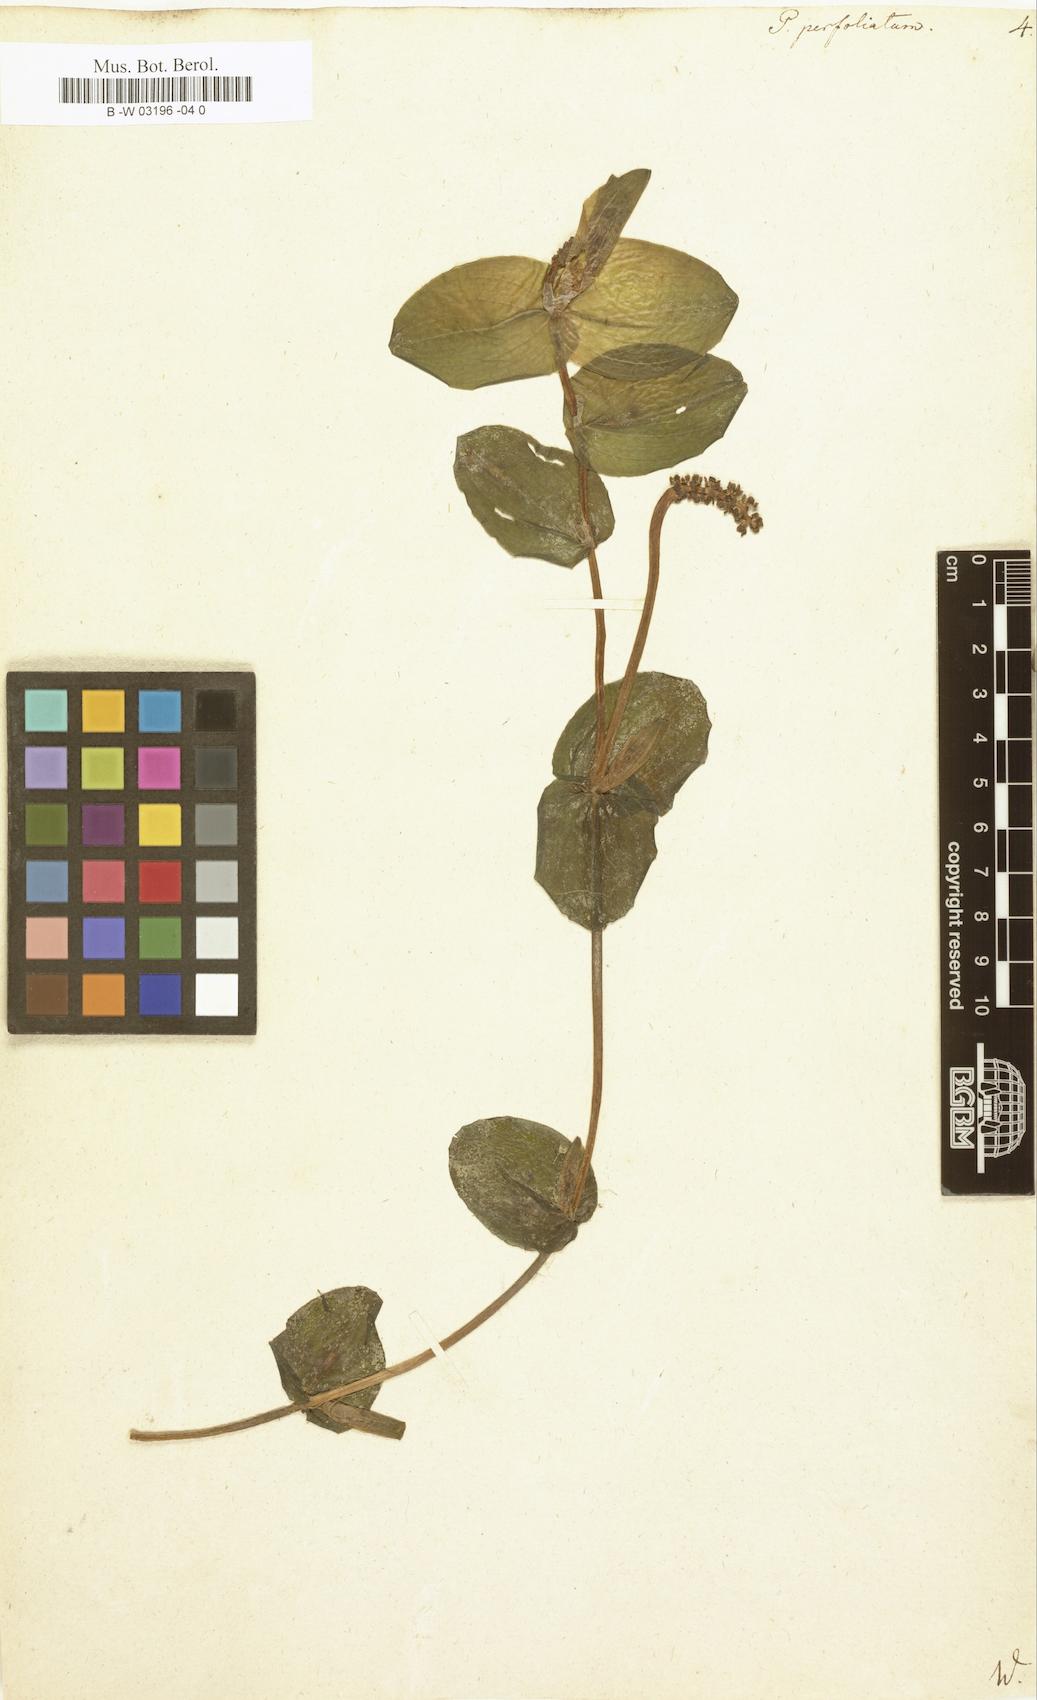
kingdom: Plantae
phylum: Tracheophyta
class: Liliopsida
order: Alismatales
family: Potamogetonaceae
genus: Potamogeton
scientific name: Potamogeton perfoliatus
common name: Perfoliate pondweed
